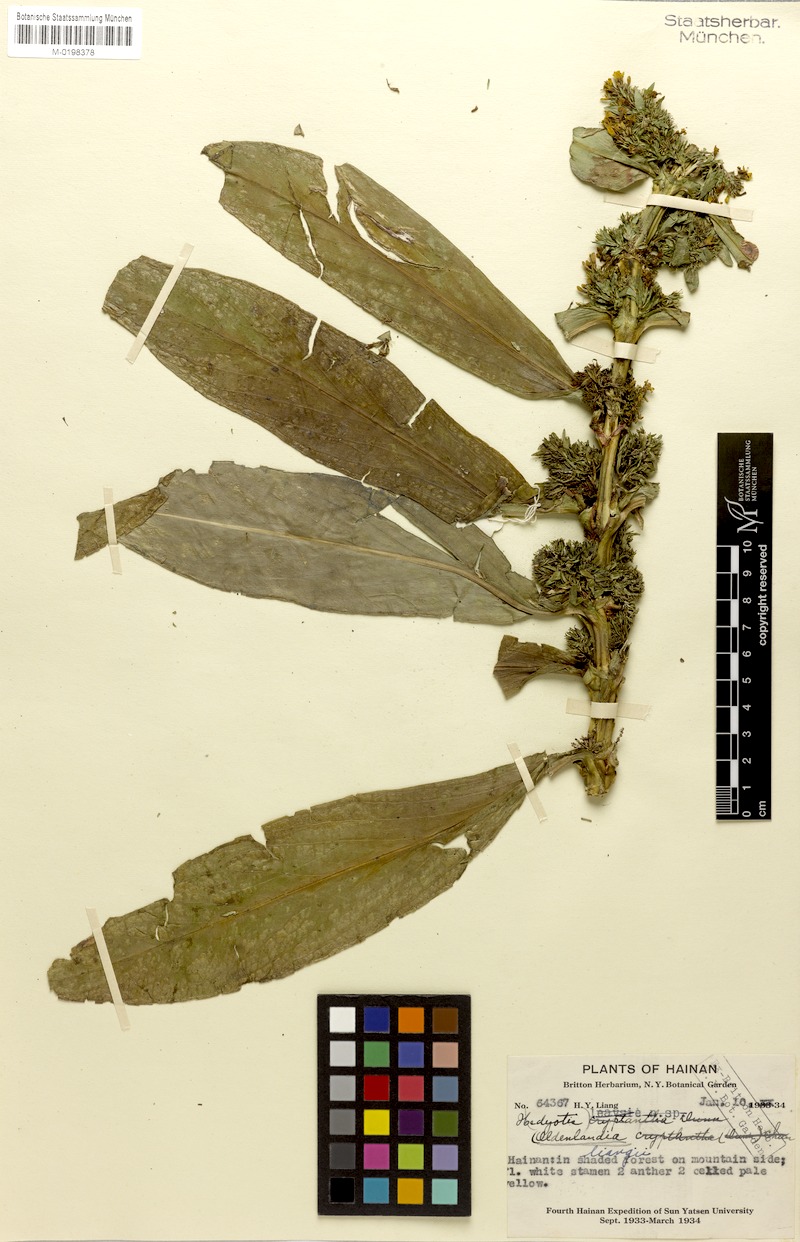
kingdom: Plantae
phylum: Tracheophyta
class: Magnoliopsida
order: Gentianales
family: Rubiaceae
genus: Hedyotis
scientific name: Hedyotis cathayana
